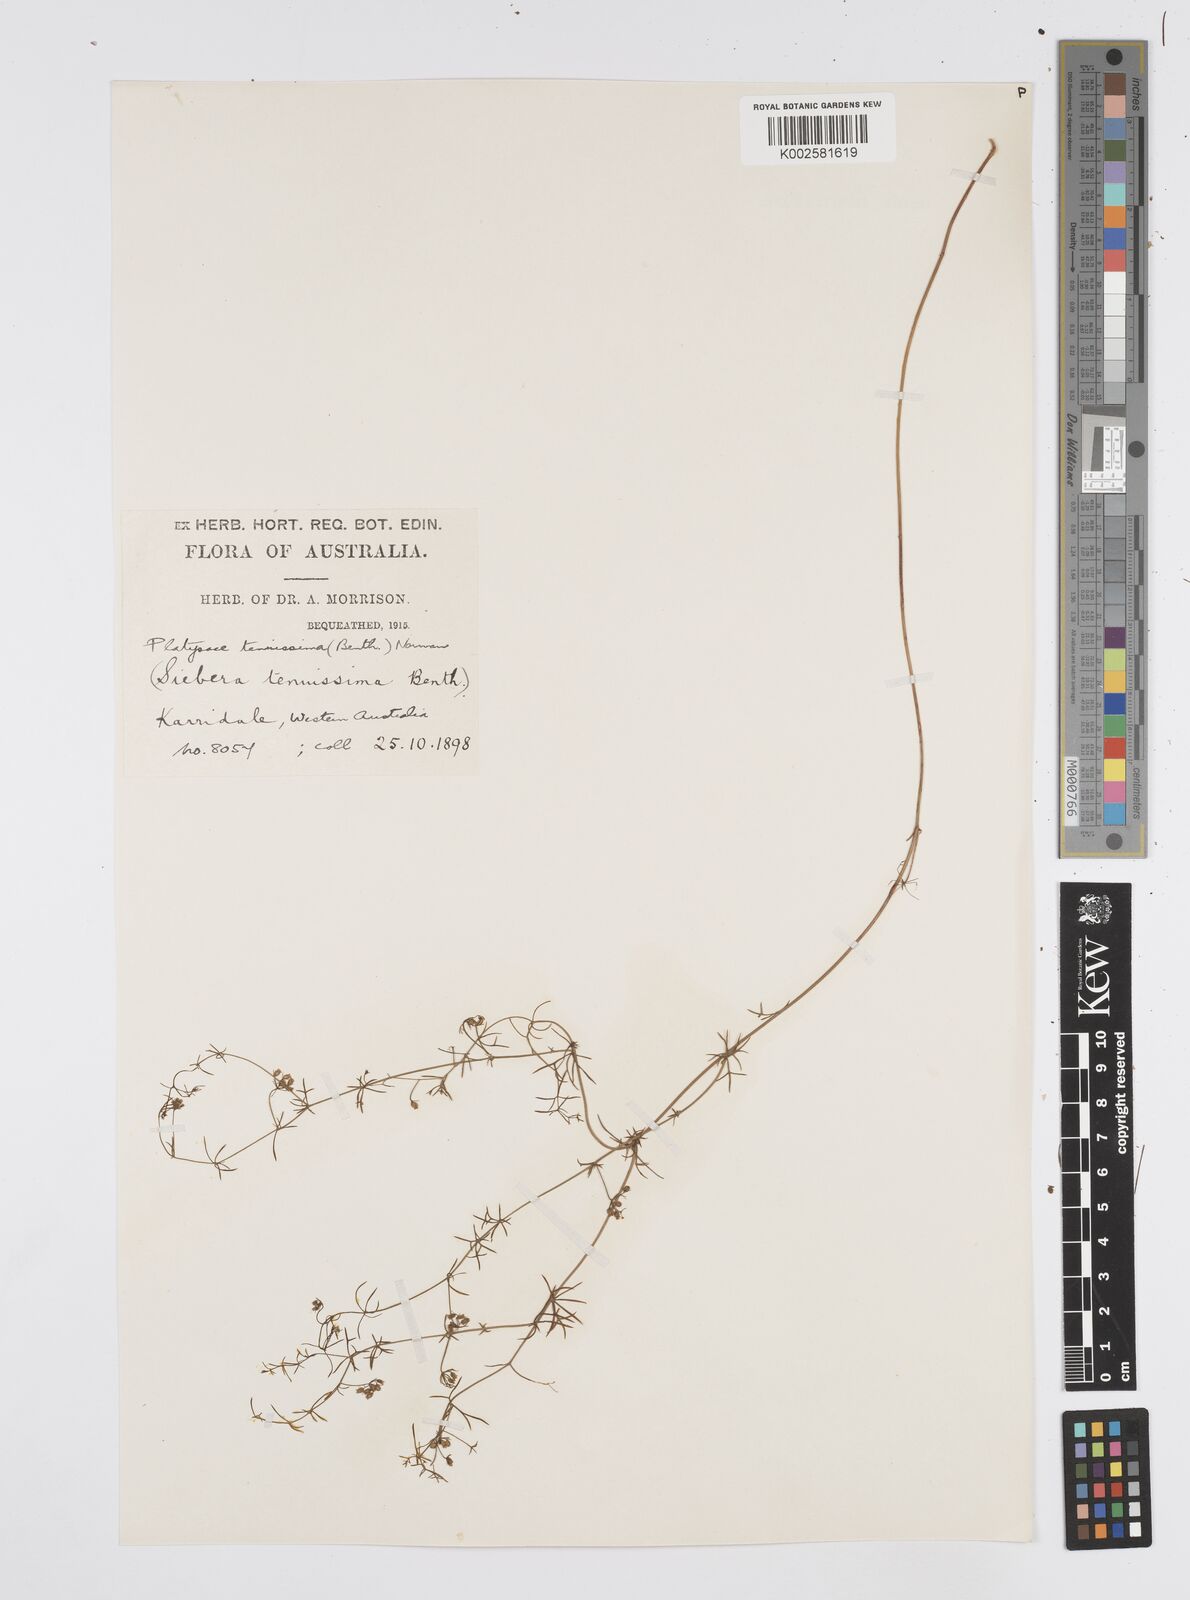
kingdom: Plantae
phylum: Tracheophyta
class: Magnoliopsida
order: Apiales
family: Apiaceae
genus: Platysace
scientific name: Platysace tenuissima
